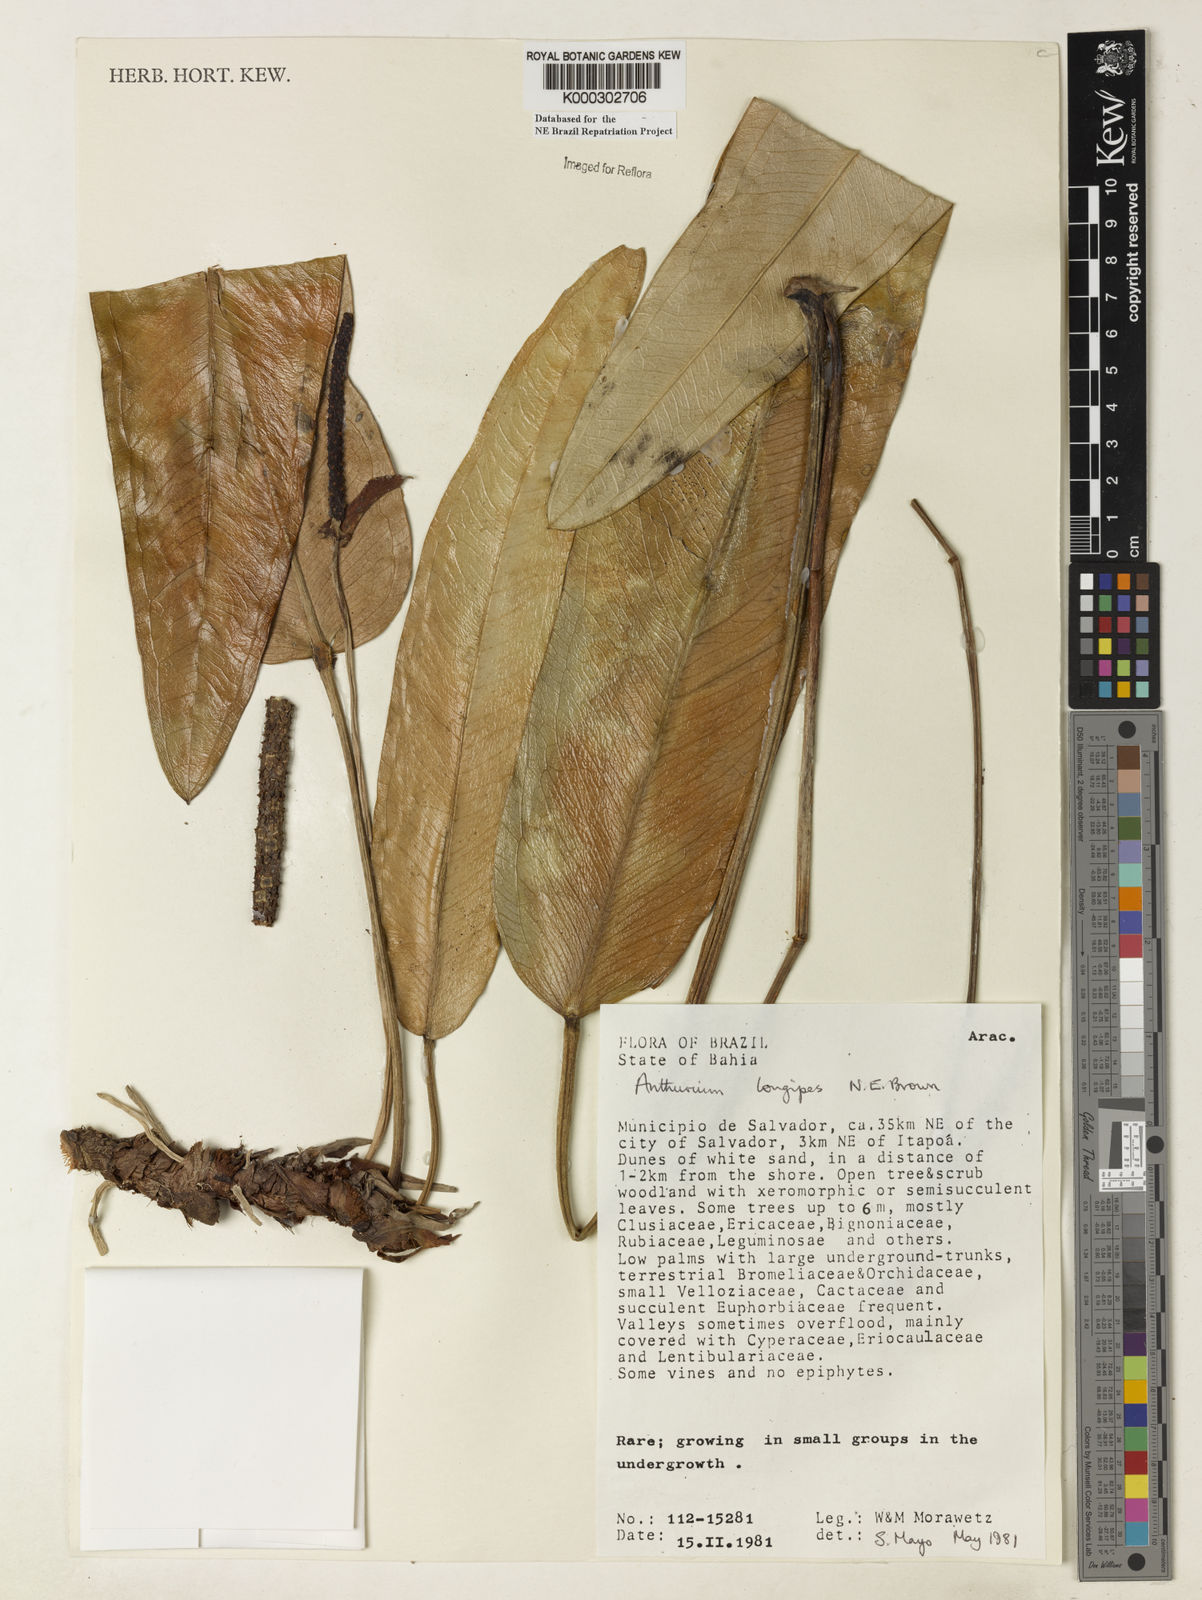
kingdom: Plantae
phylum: Tracheophyta
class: Liliopsida
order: Alismatales
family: Araceae
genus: Anthurium
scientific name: Anthurium longipes
